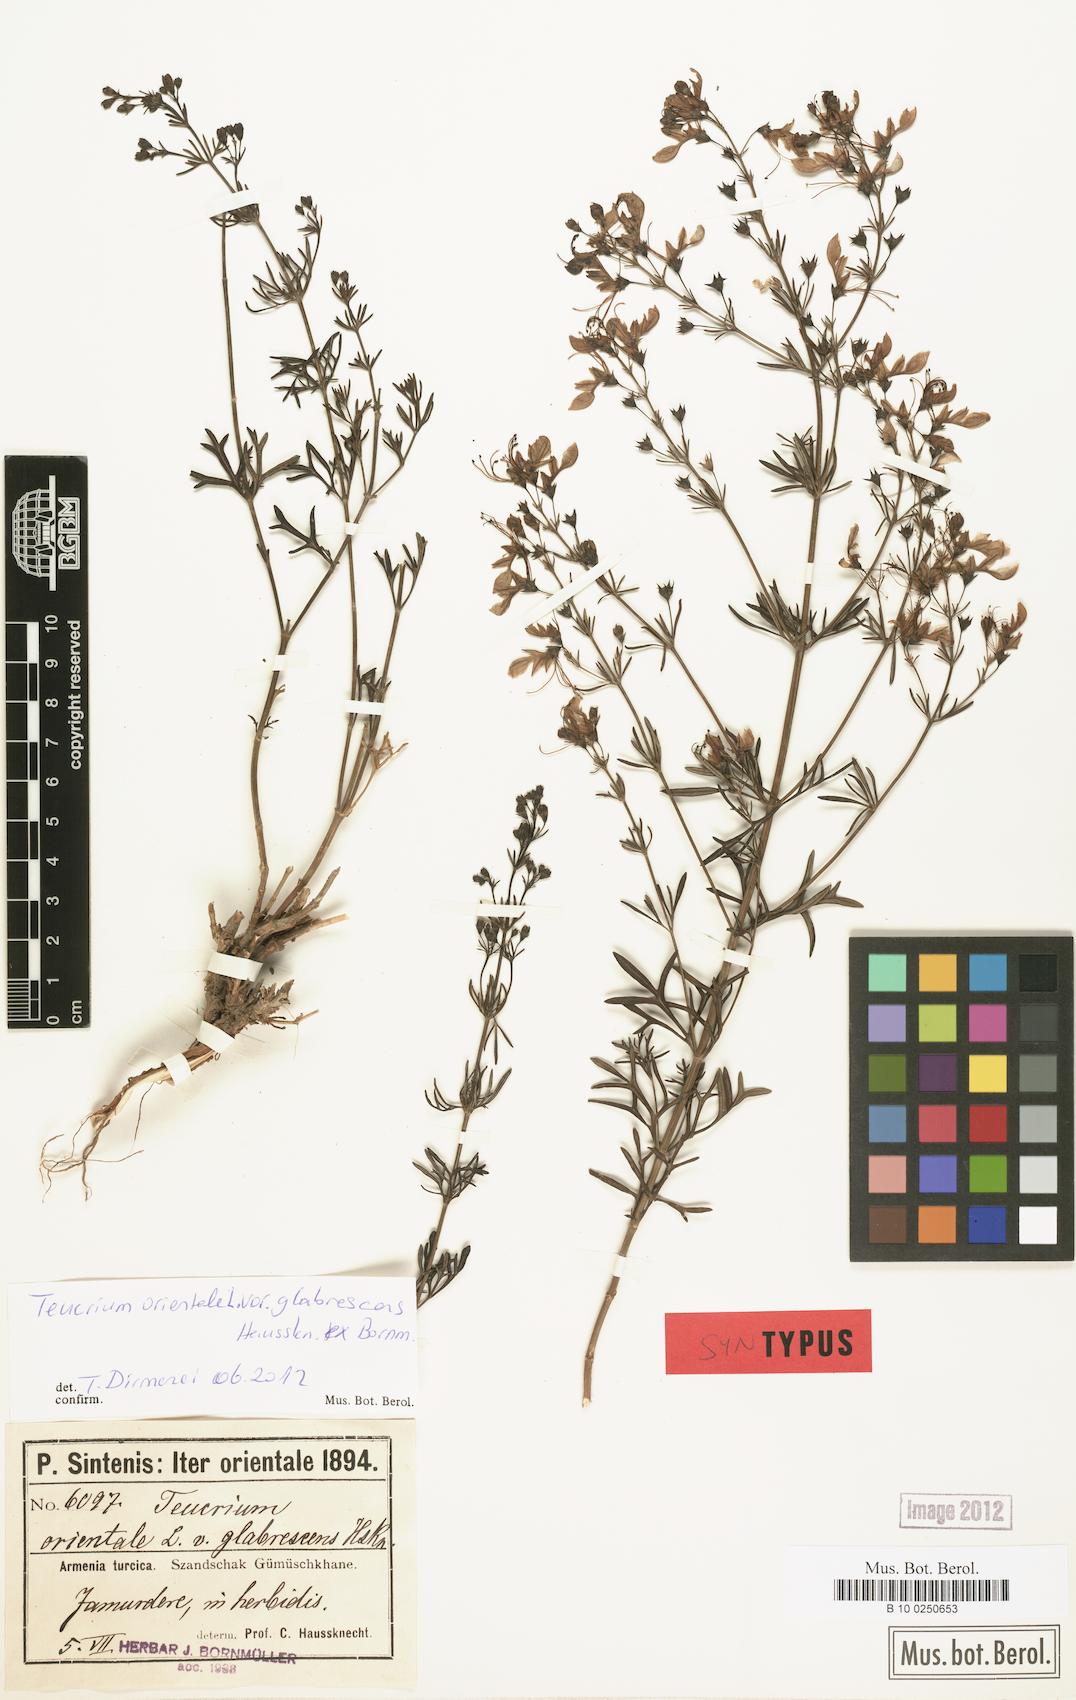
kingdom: Plantae
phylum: Tracheophyta
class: Magnoliopsida
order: Lamiales
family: Lamiaceae
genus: Teucrium
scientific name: Teucrium orientale
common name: Oriental germander
